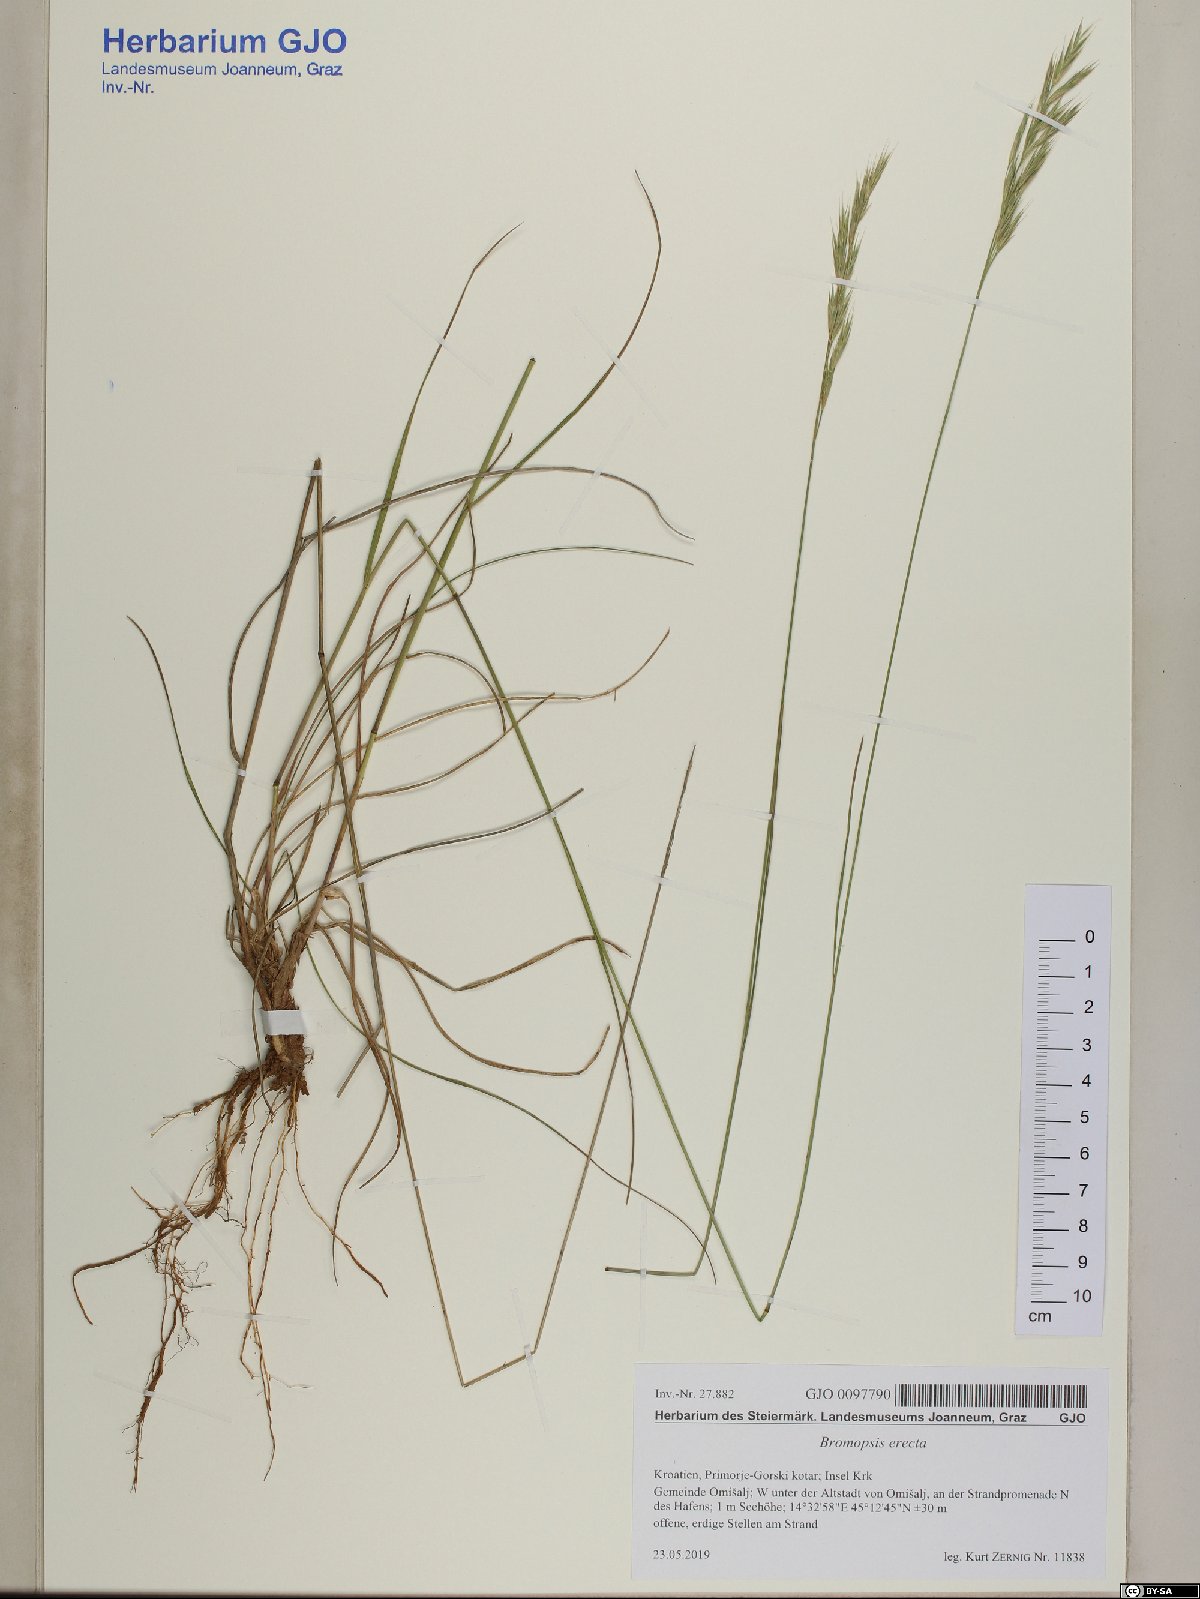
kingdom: Plantae
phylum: Tracheophyta
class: Liliopsida
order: Poales
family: Poaceae
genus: Bromus
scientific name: Bromus erectus
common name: Erect brome
